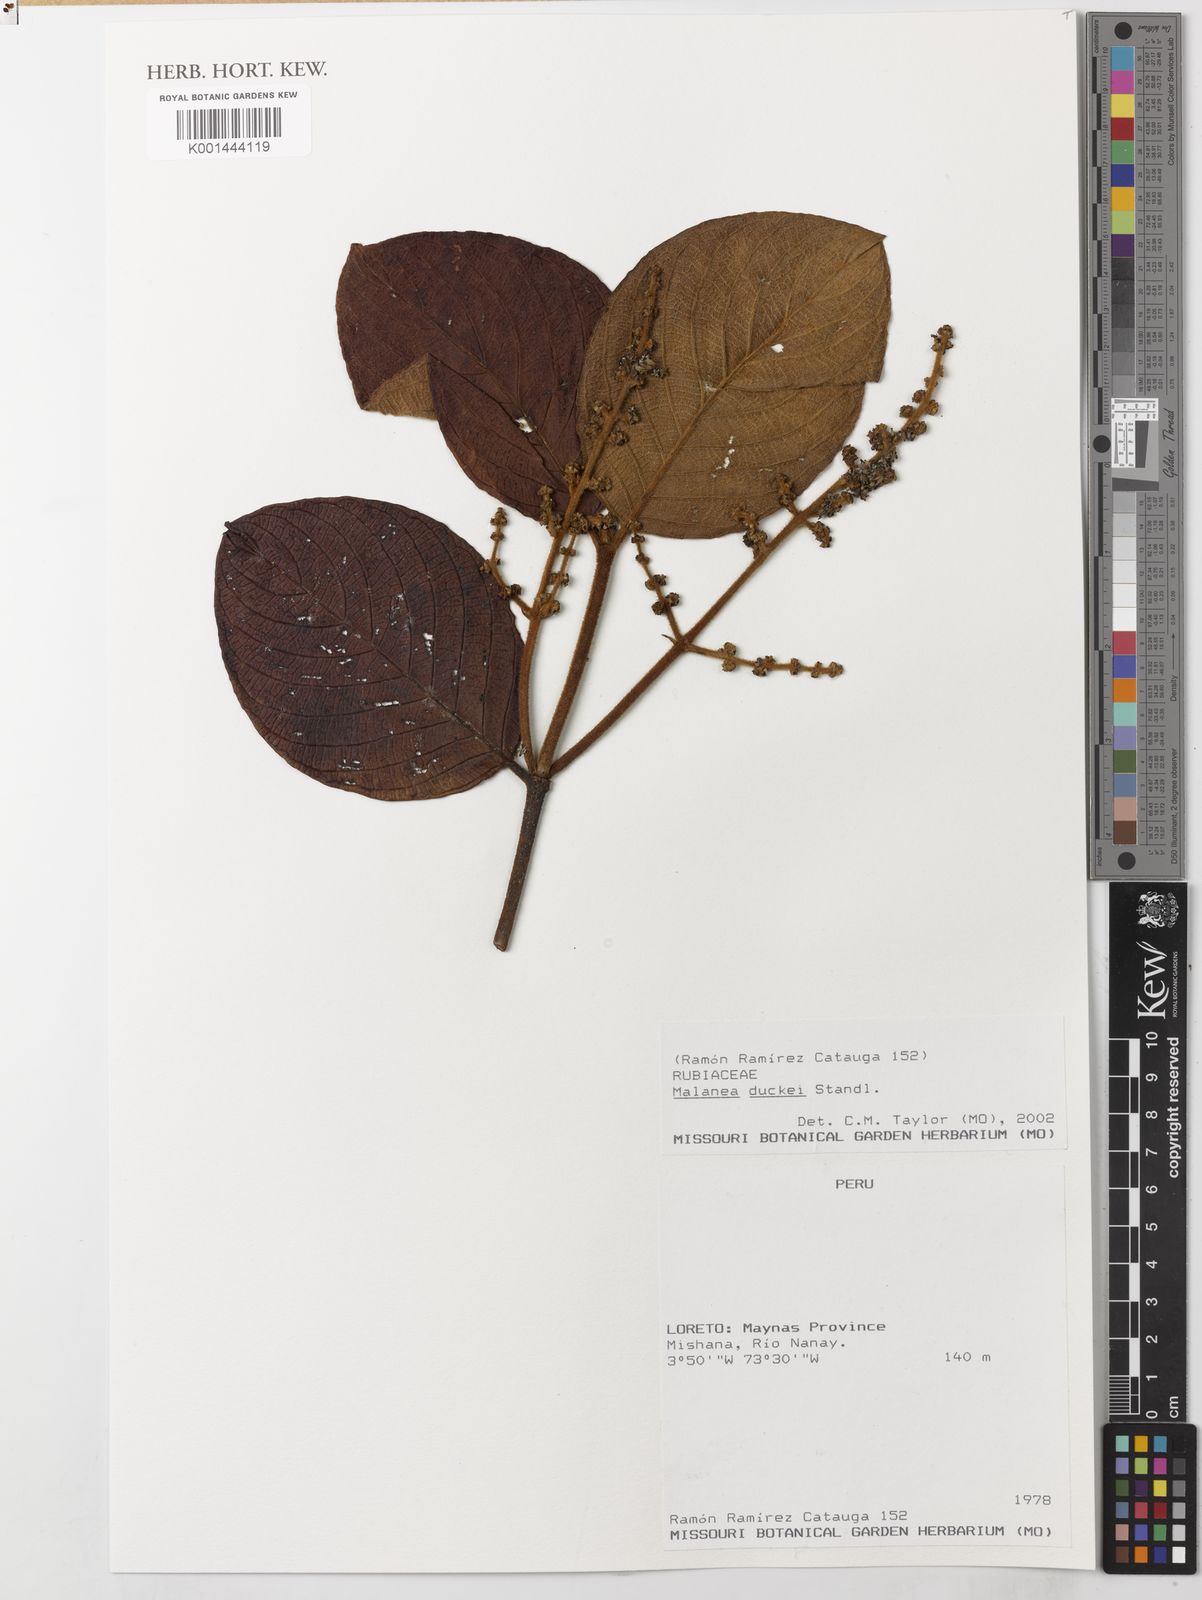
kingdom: Plantae
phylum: Tracheophyta
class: Magnoliopsida
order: Gentianales
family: Rubiaceae
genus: Malanea
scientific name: Malanea duckei
